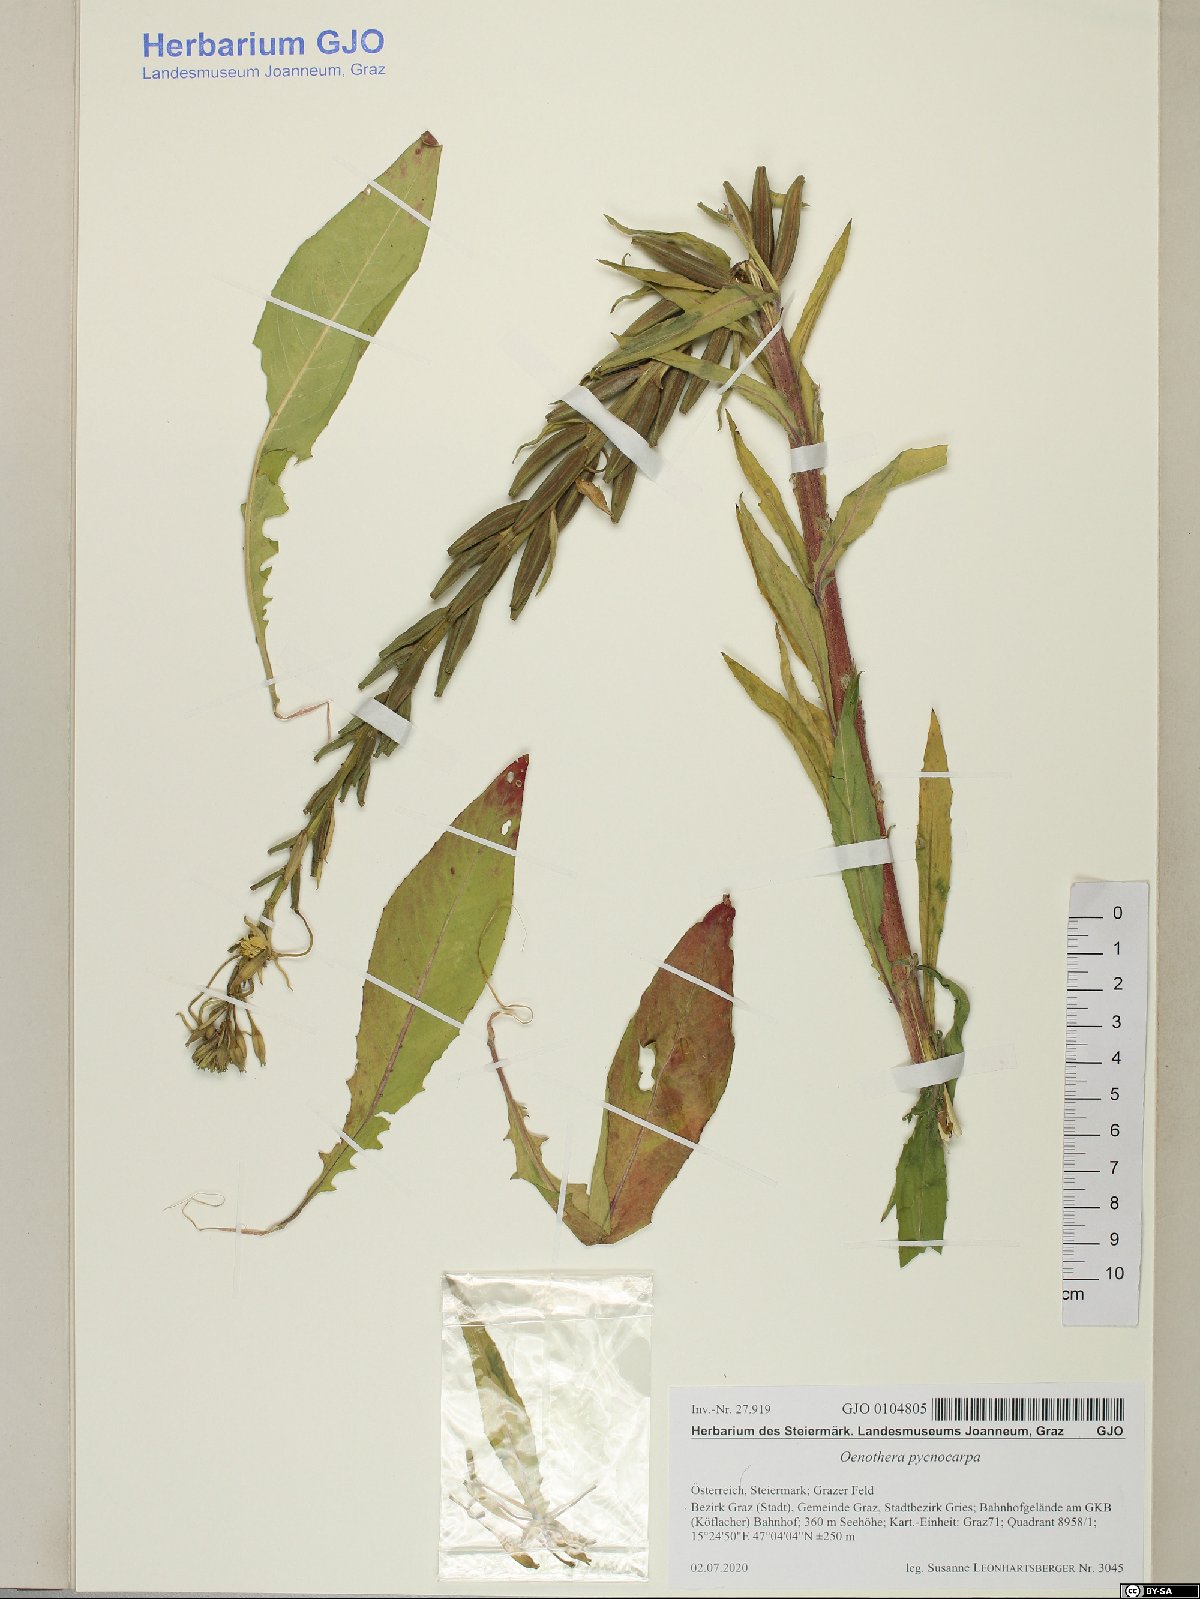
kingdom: Plantae
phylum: Tracheophyta
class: Magnoliopsida
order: Myrtales
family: Onagraceae
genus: Oenothera
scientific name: Oenothera biennis
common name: Common evening-primrose
